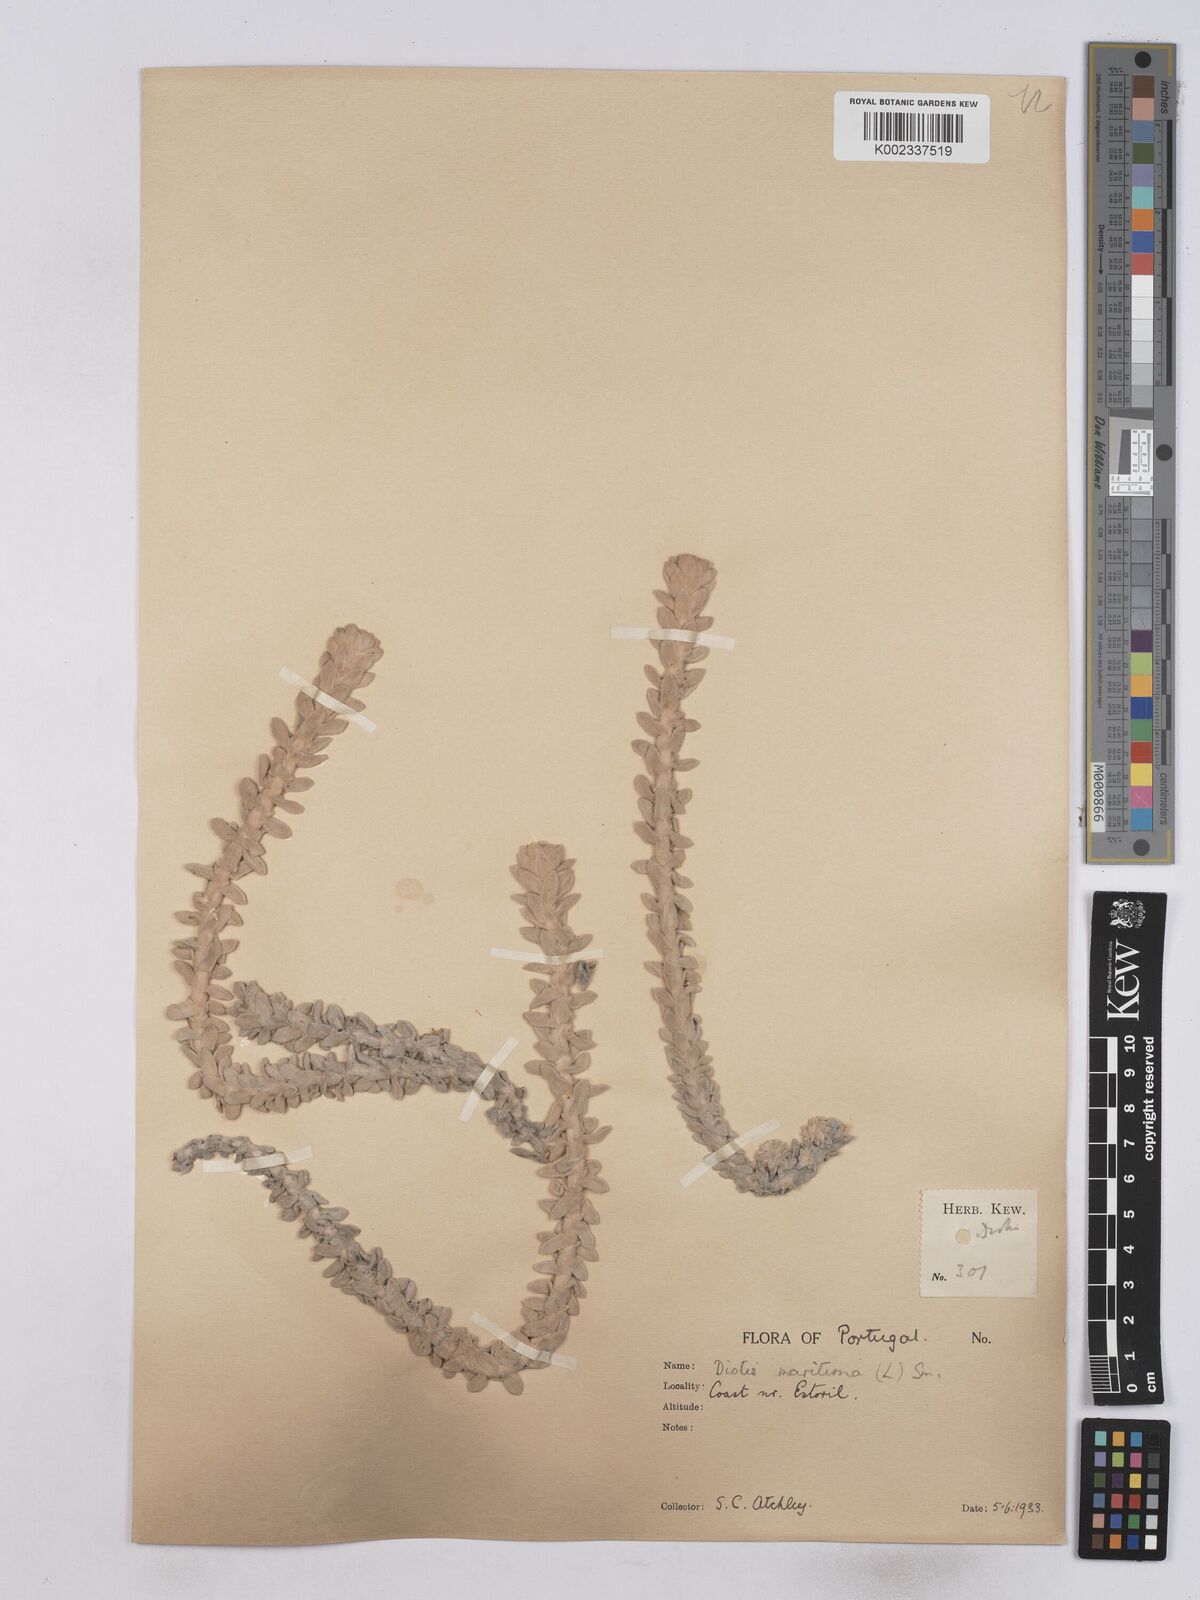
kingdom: Plantae
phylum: Tracheophyta
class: Magnoliopsida
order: Asterales
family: Asteraceae
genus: Achillea
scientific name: Achillea maritima
